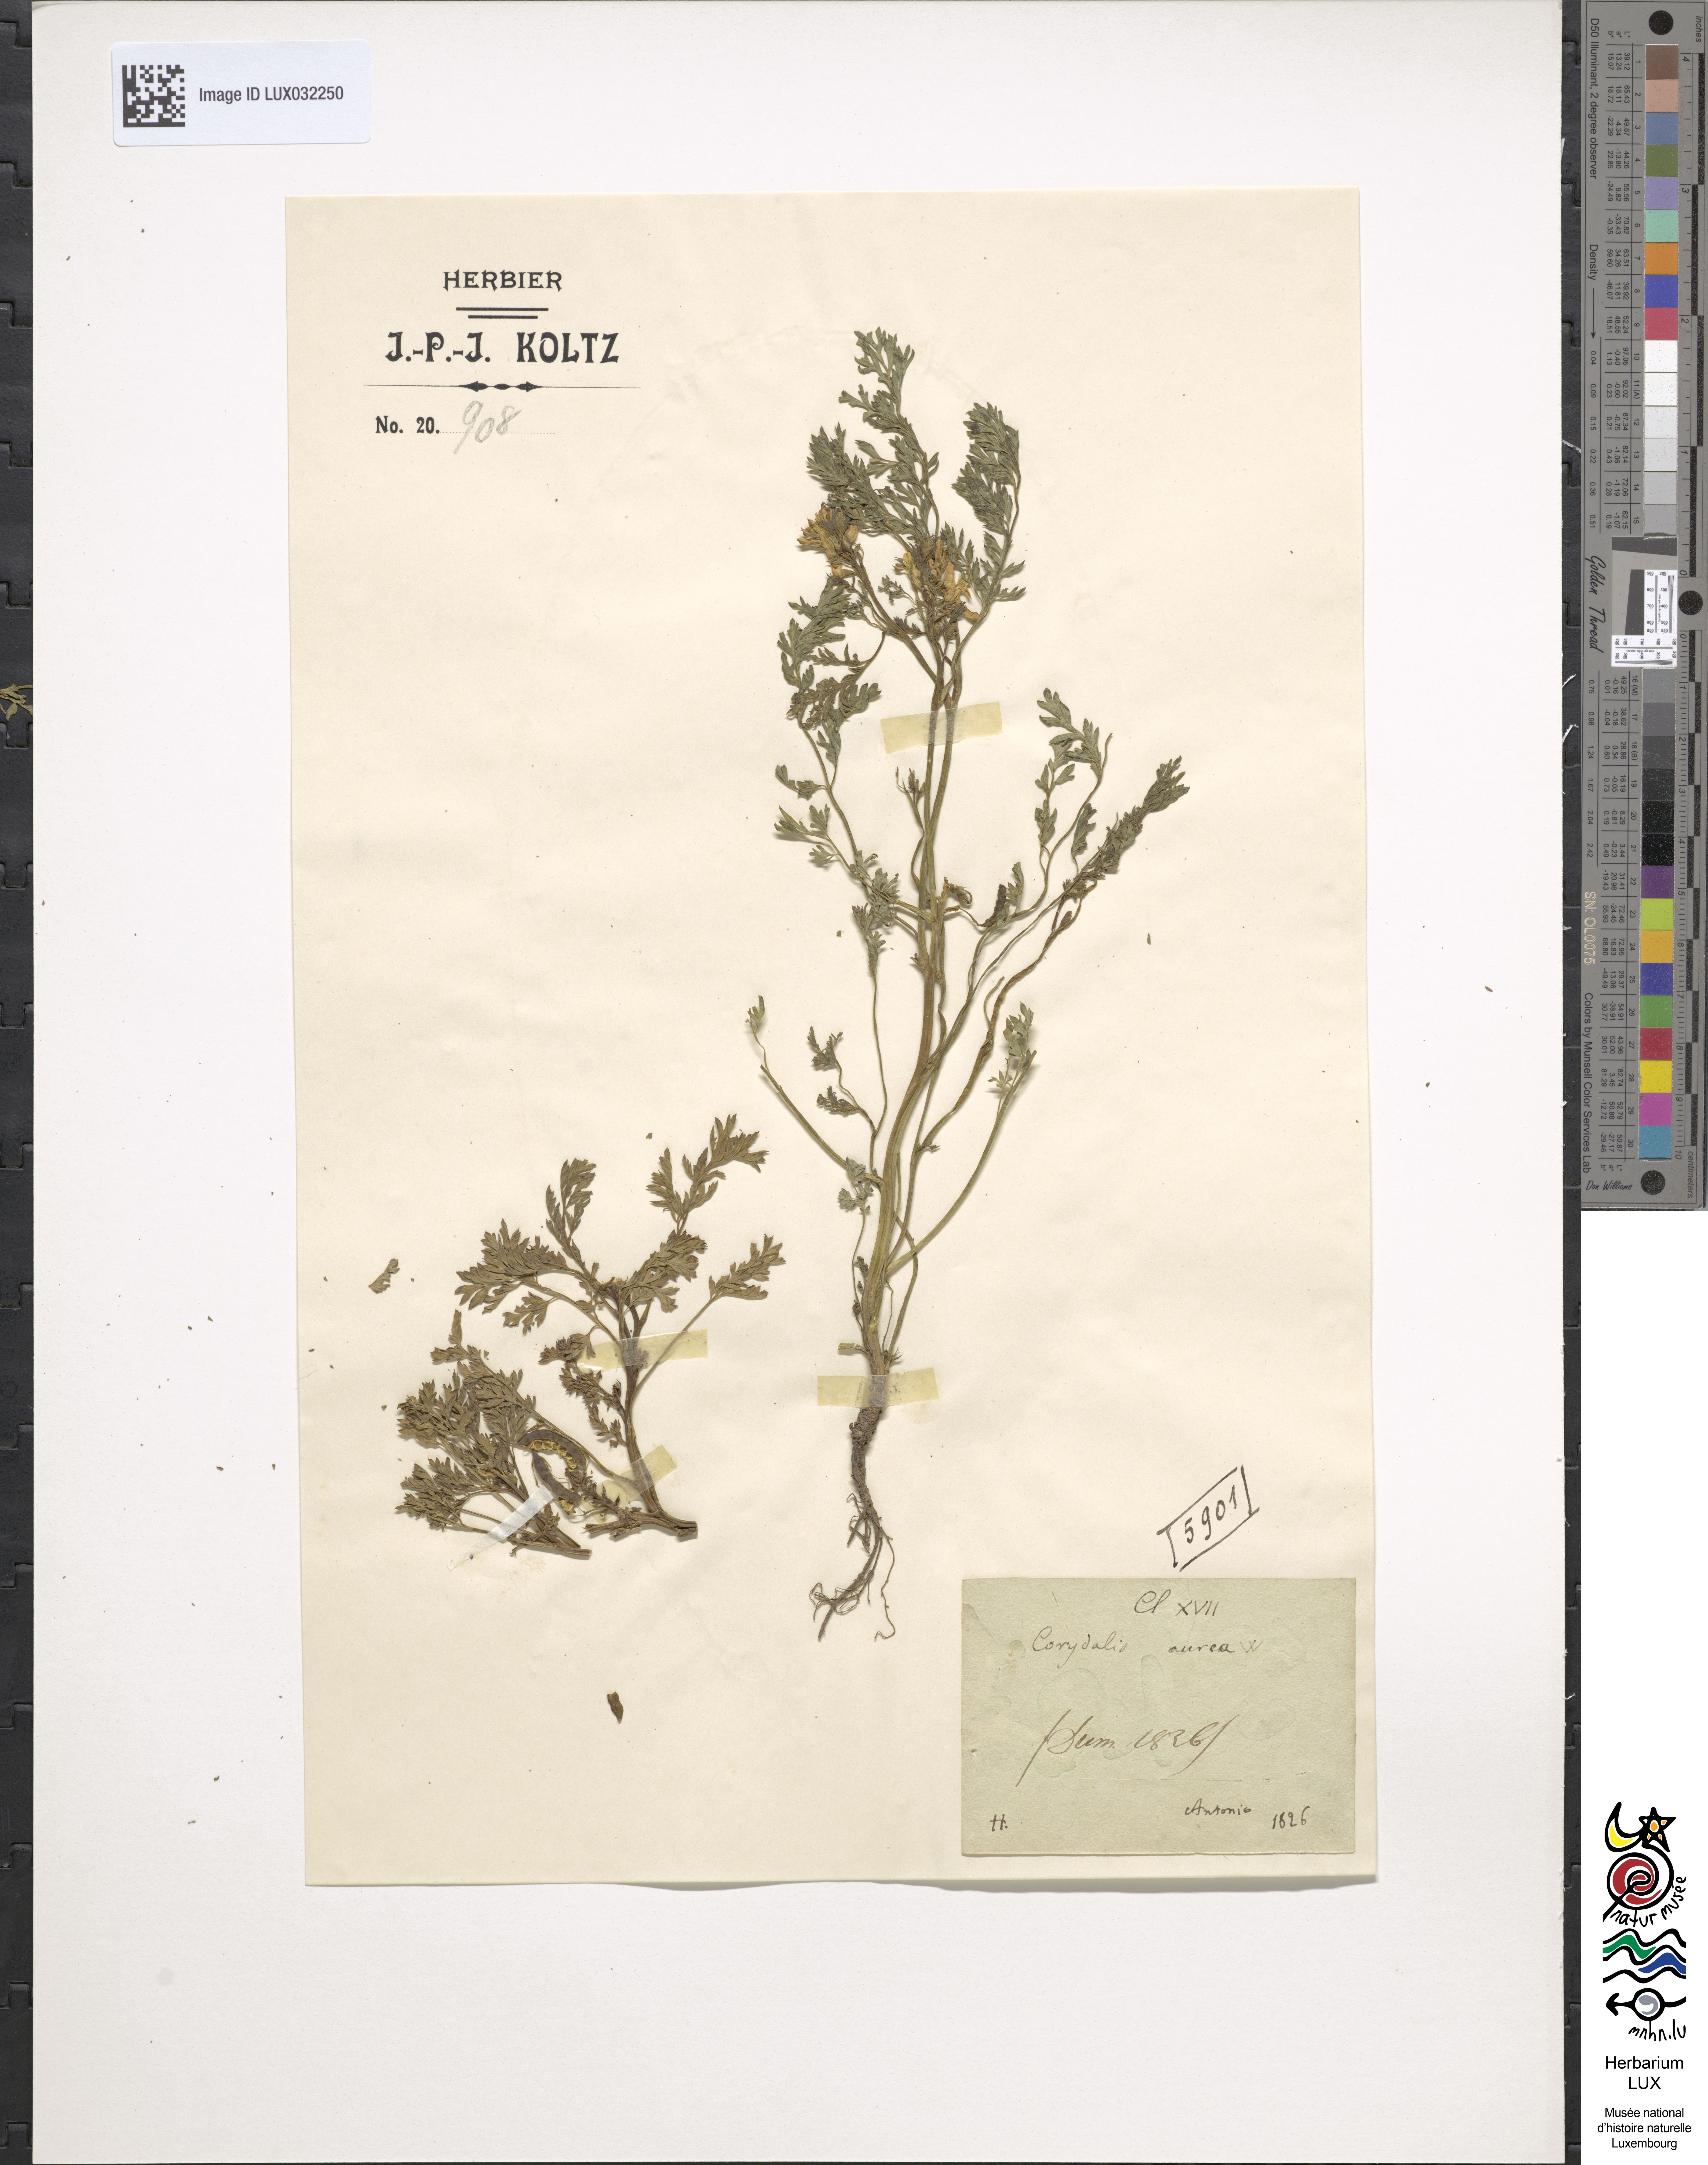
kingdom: Plantae
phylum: Tracheophyta
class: Magnoliopsida
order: Ranunculales
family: Papaveraceae
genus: Corydalis
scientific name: Corydalis aurea
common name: Golden corydalis
